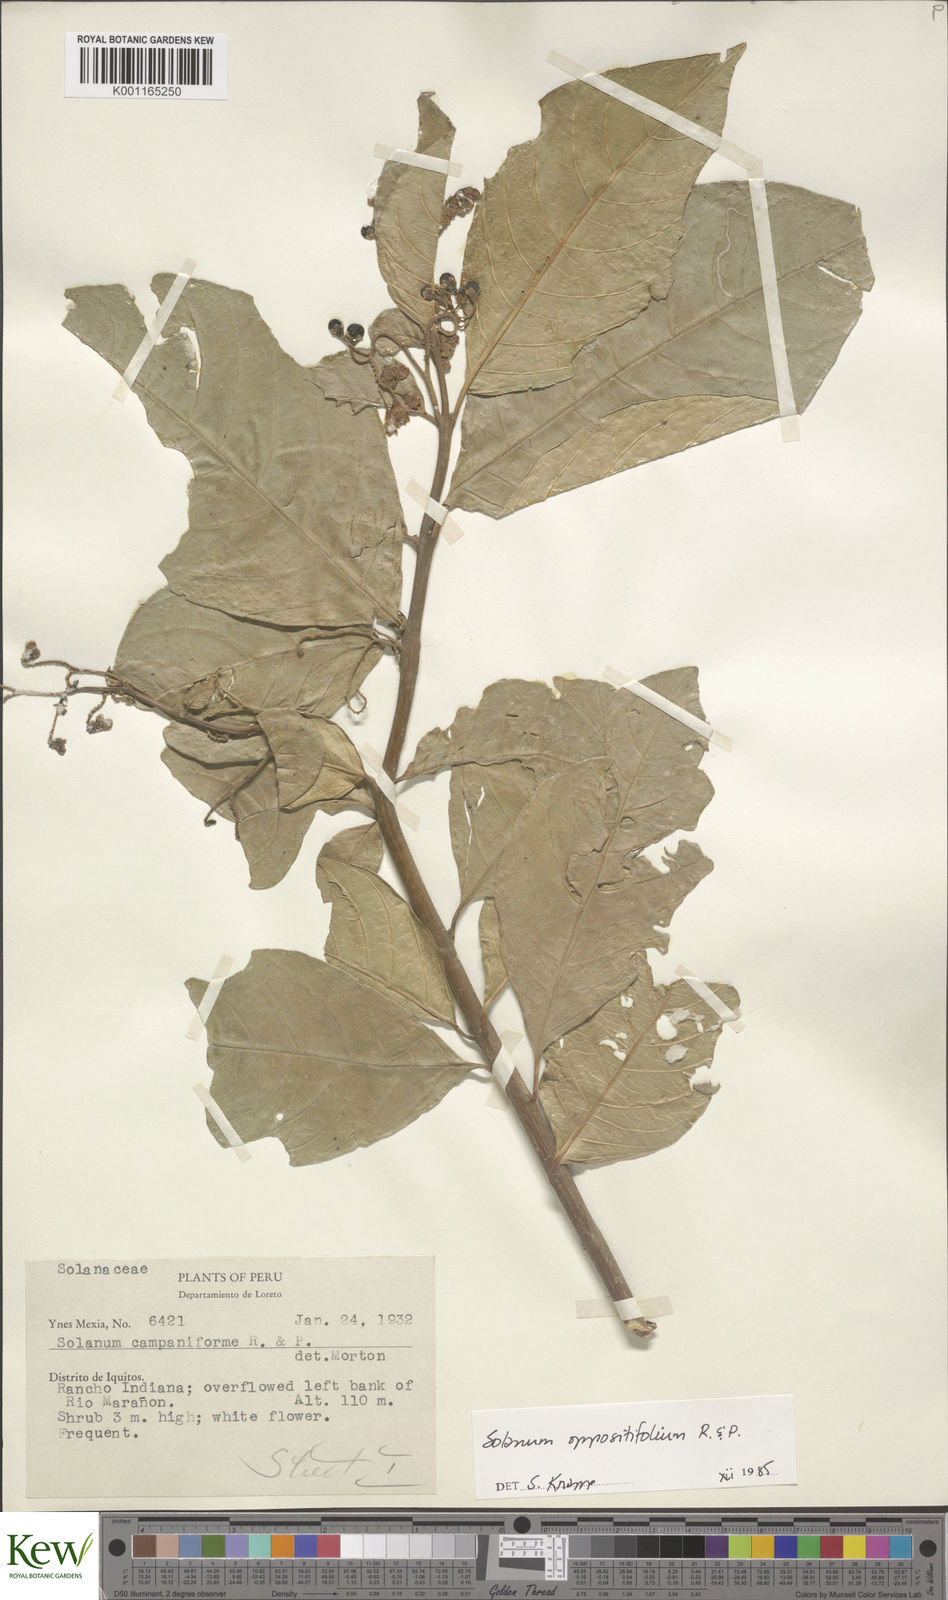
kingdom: Plantae
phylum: Tracheophyta
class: Magnoliopsida
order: Solanales
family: Solanaceae
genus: Solanum
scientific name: Solanum oppositifolium
